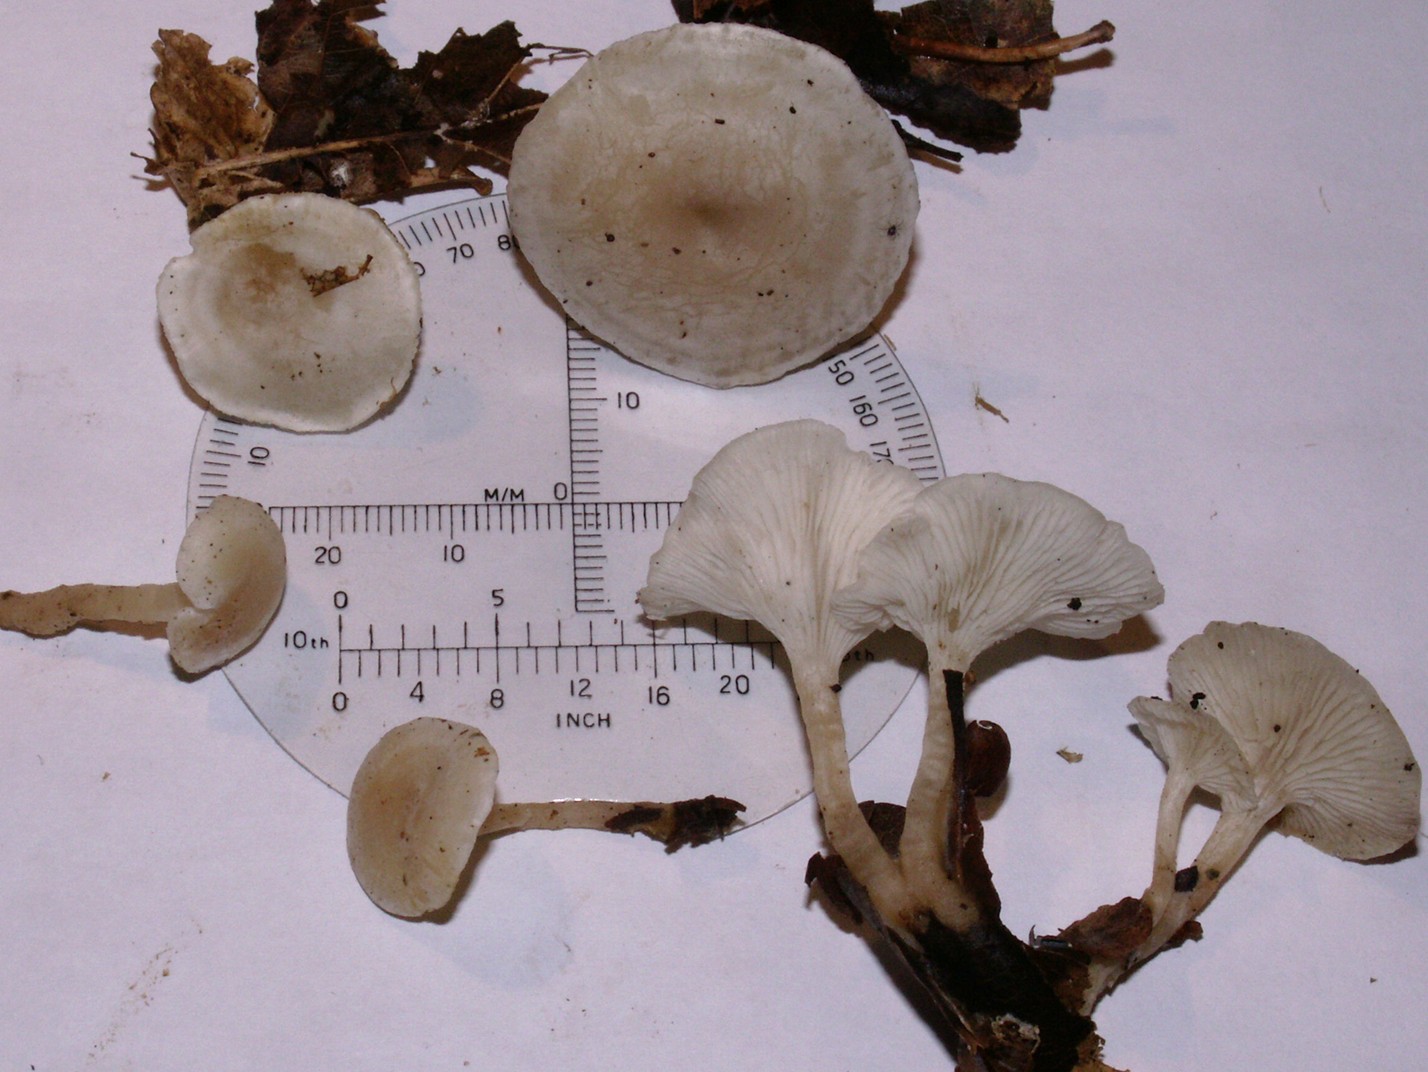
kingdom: Fungi
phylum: Basidiomycota
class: Agaricomycetes
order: Agaricales
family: Tricholomataceae
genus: Leucocybe
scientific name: Leucocybe candicans
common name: kridt-tragthat
